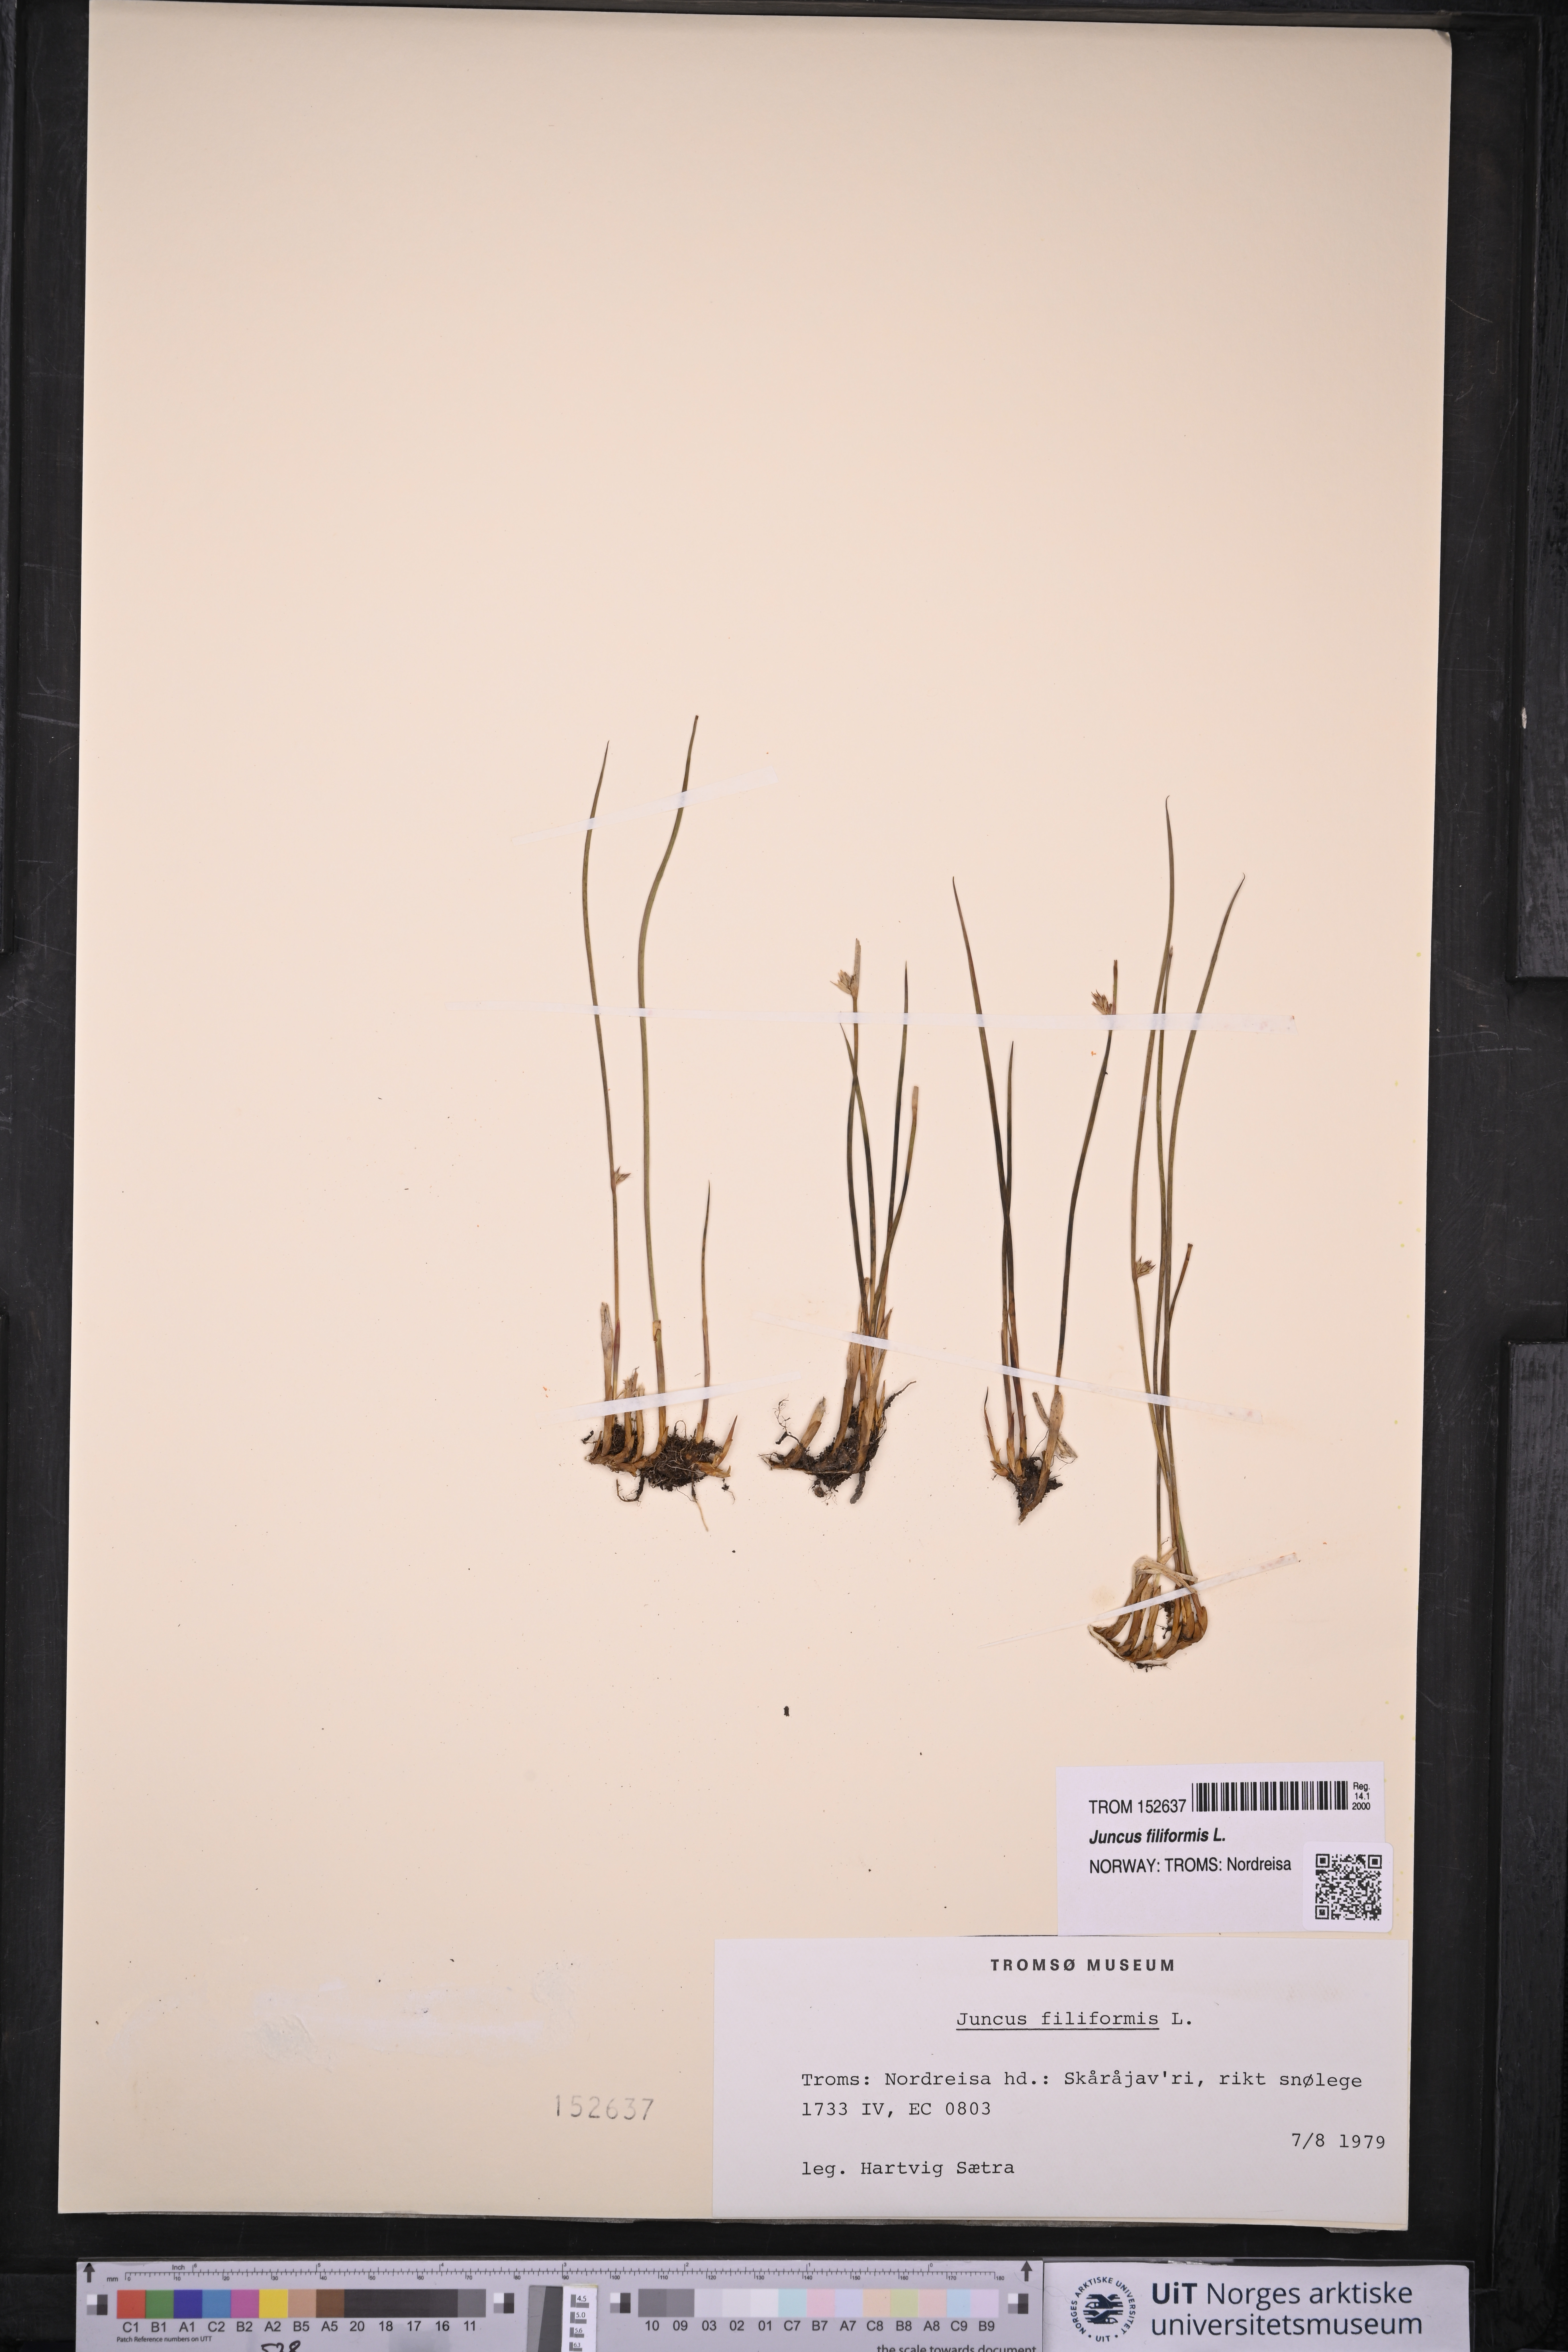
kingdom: Plantae
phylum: Tracheophyta
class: Liliopsida
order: Poales
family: Juncaceae
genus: Juncus
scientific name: Juncus filiformis
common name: Thread rush
